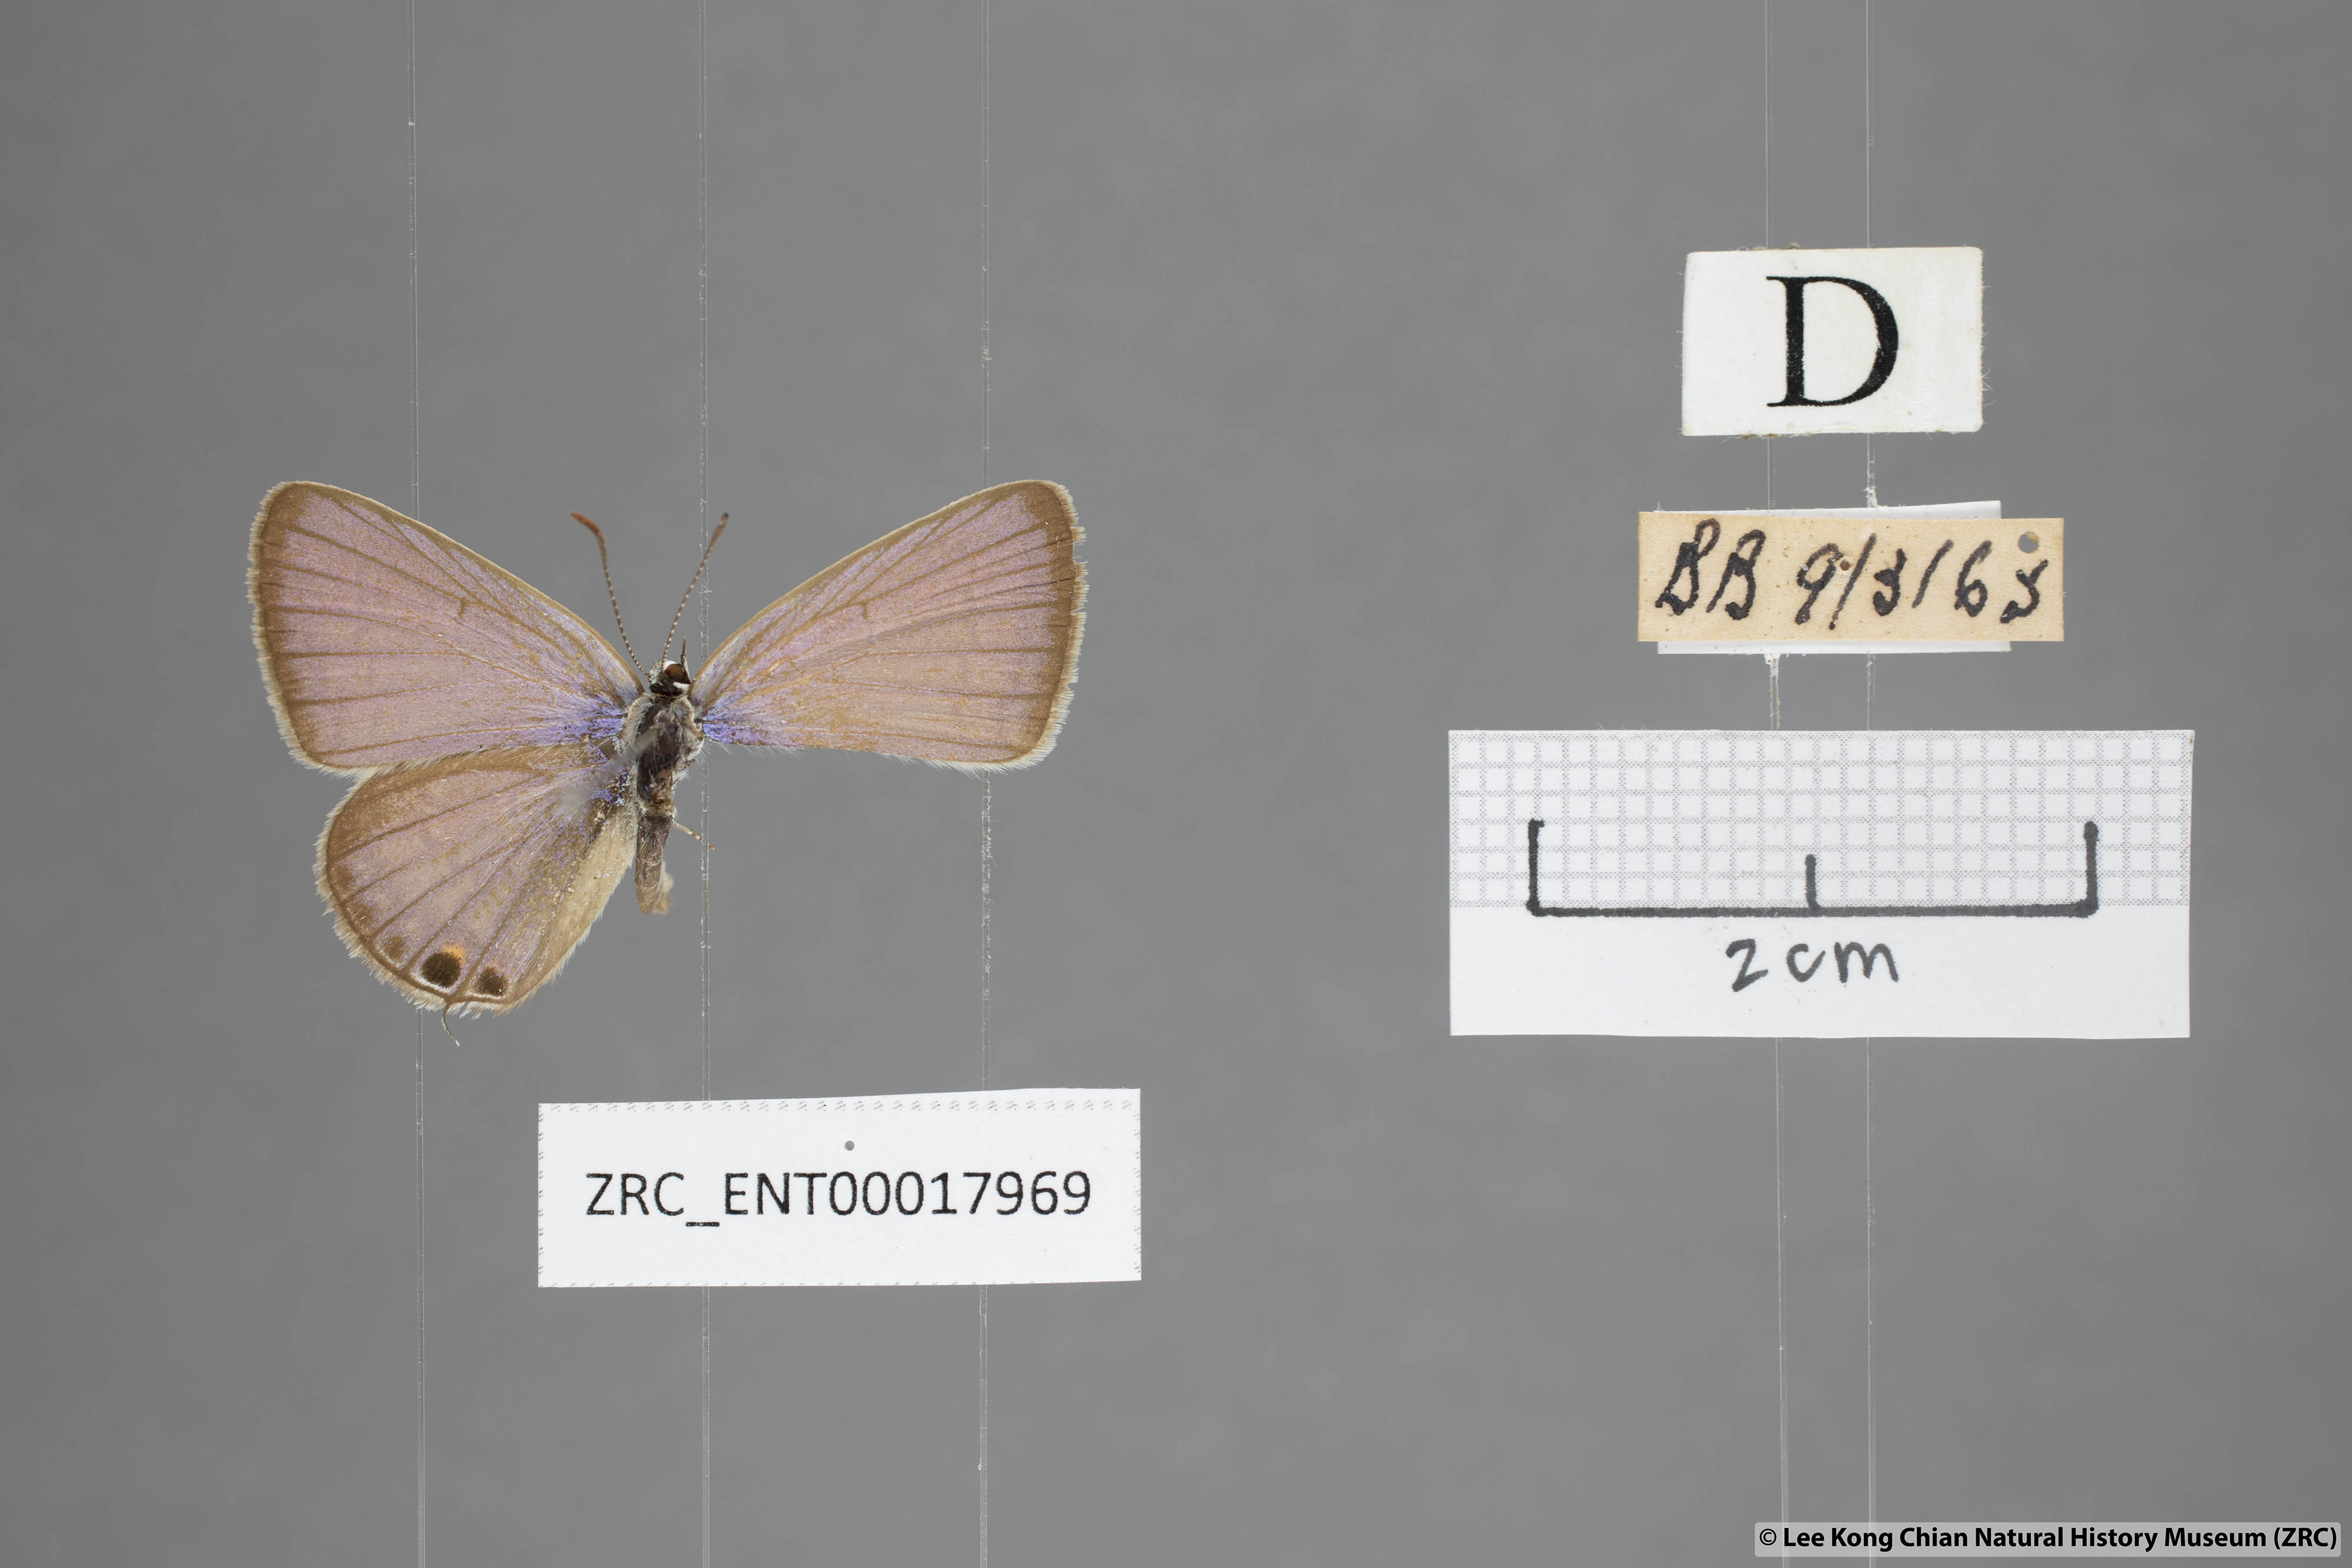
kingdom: Animalia
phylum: Arthropoda
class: Insecta
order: Lepidoptera
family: Lycaenidae
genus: Euchrysops
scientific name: Euchrysops cnejus
